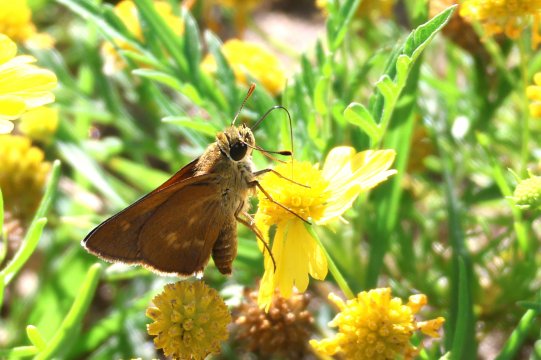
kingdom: Animalia
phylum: Arthropoda
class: Insecta
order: Lepidoptera
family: Hesperiidae
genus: Wallengrenia
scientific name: Wallengrenia otho
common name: Southern Broken-Dash
